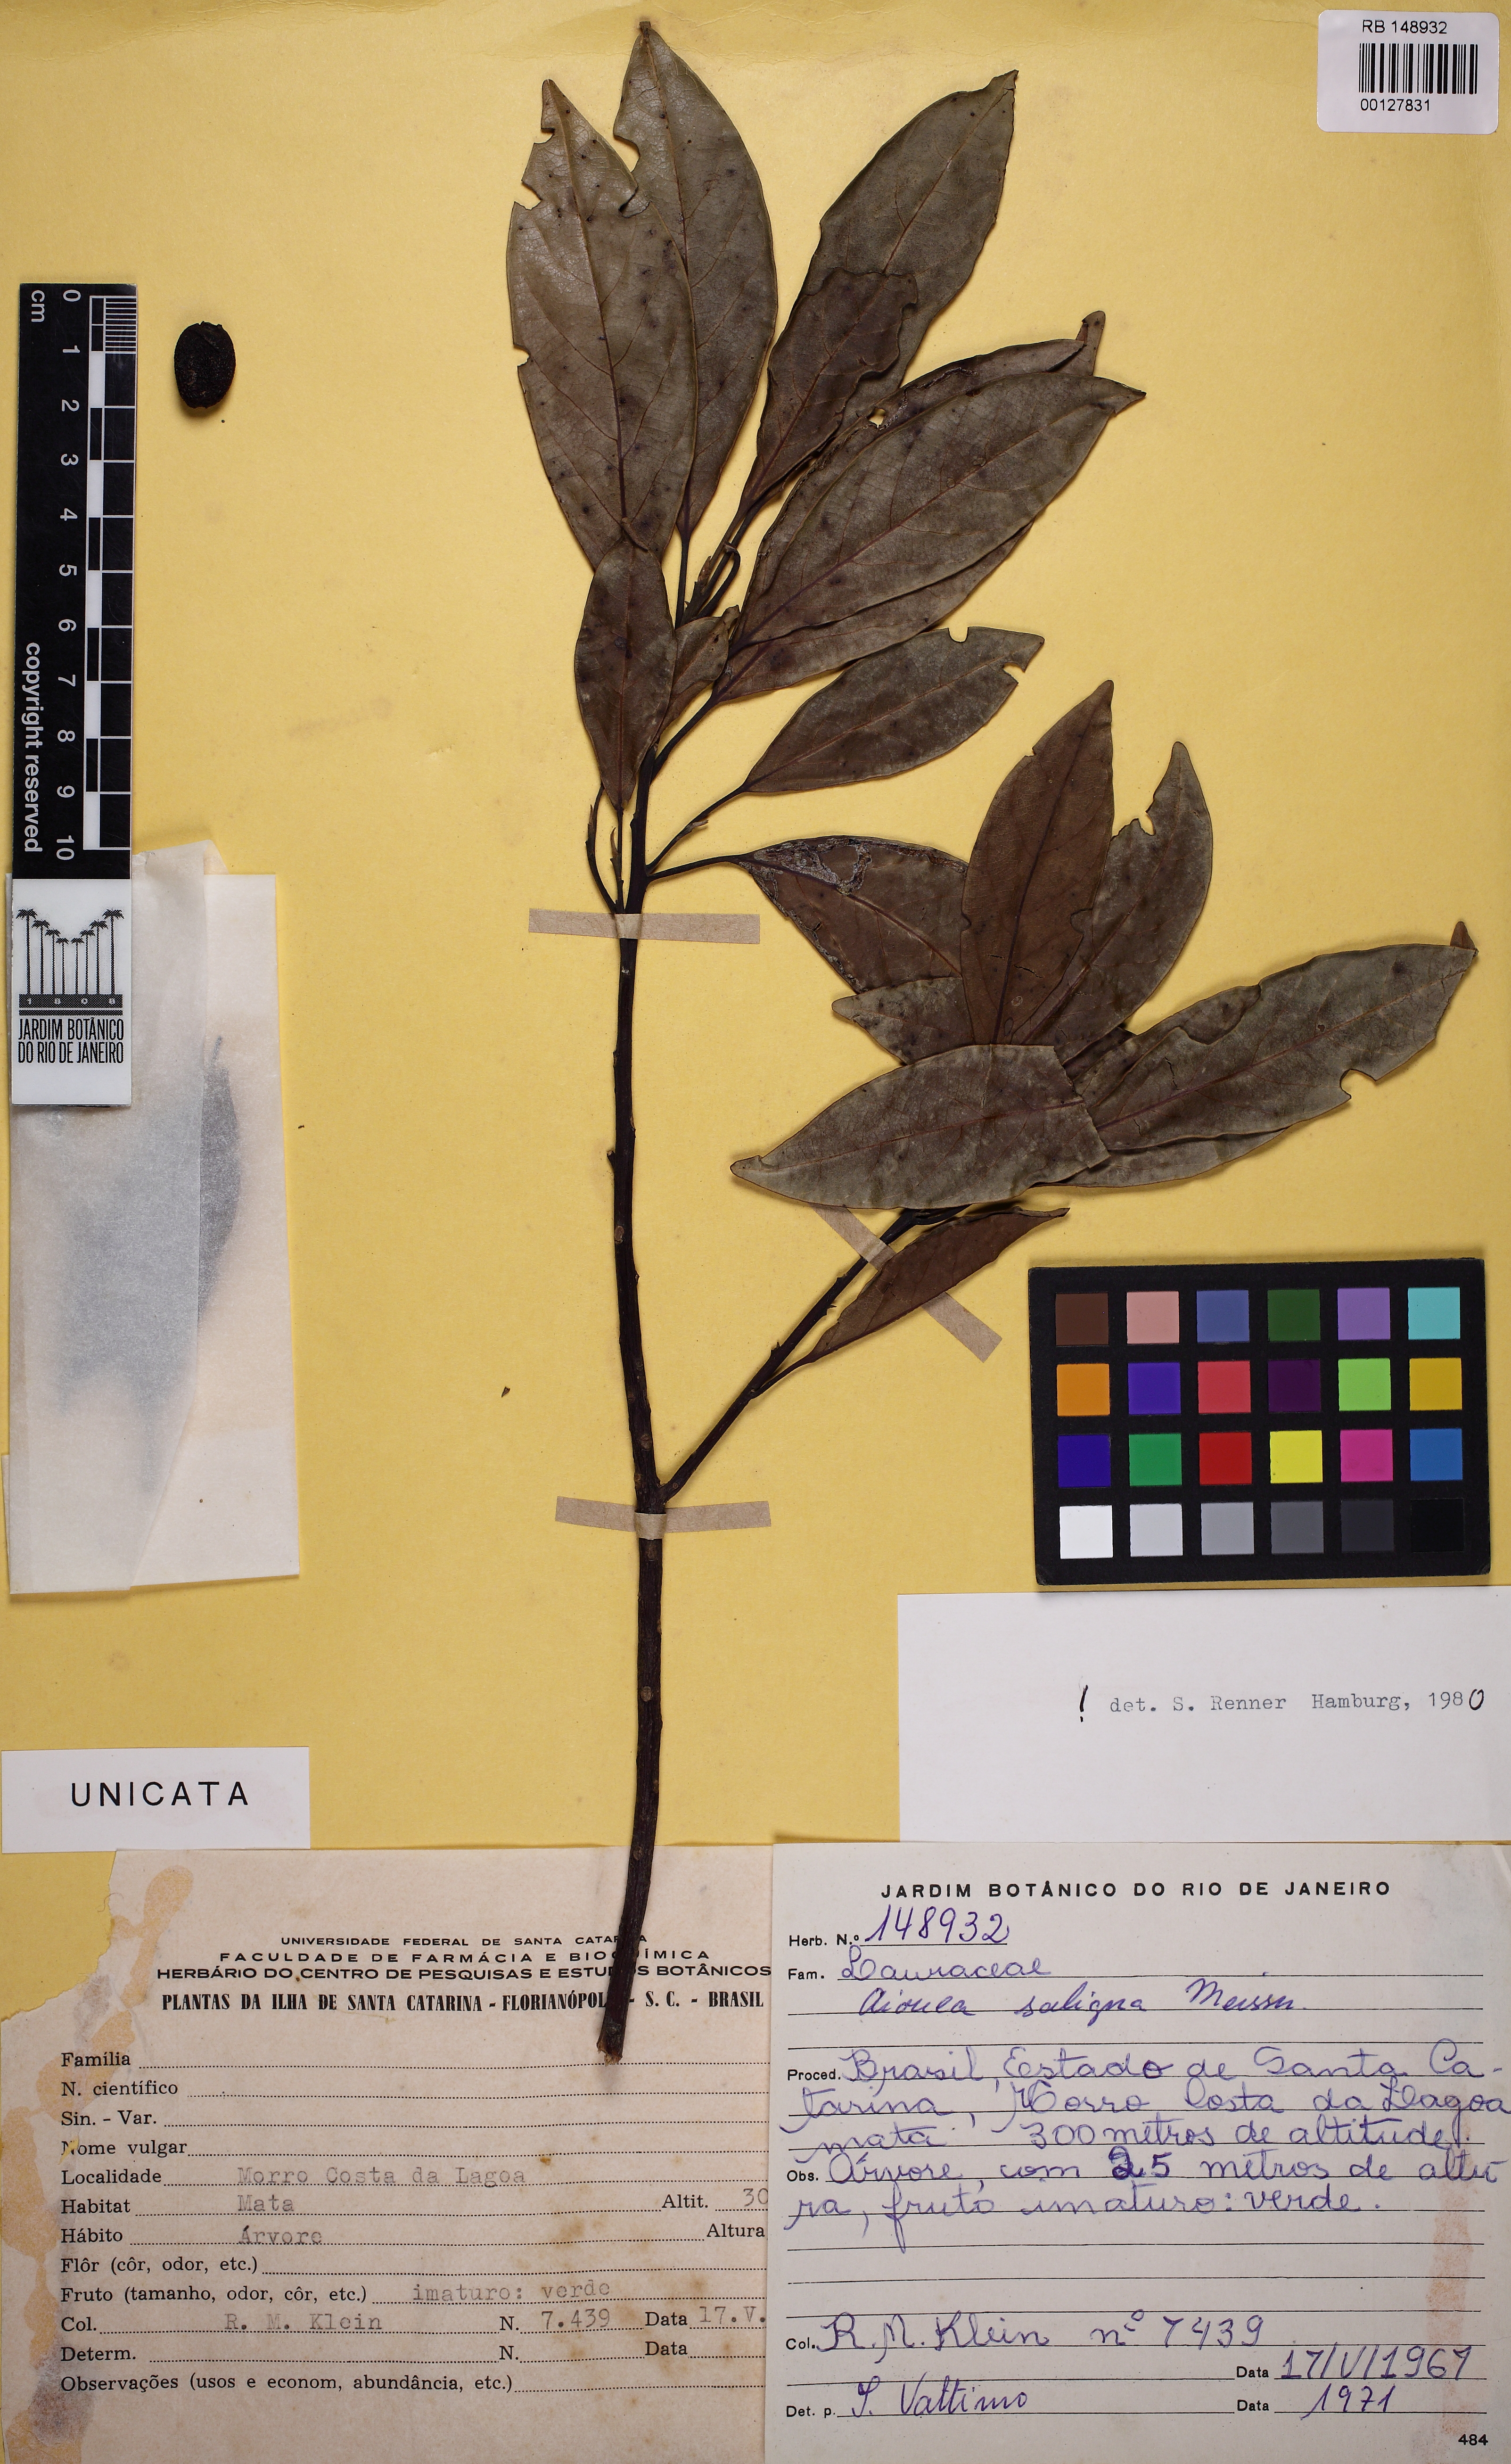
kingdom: Plantae
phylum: Tracheophyta
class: Magnoliopsida
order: Laurales
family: Lauraceae
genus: Aiouea
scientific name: Aiouea saligna
